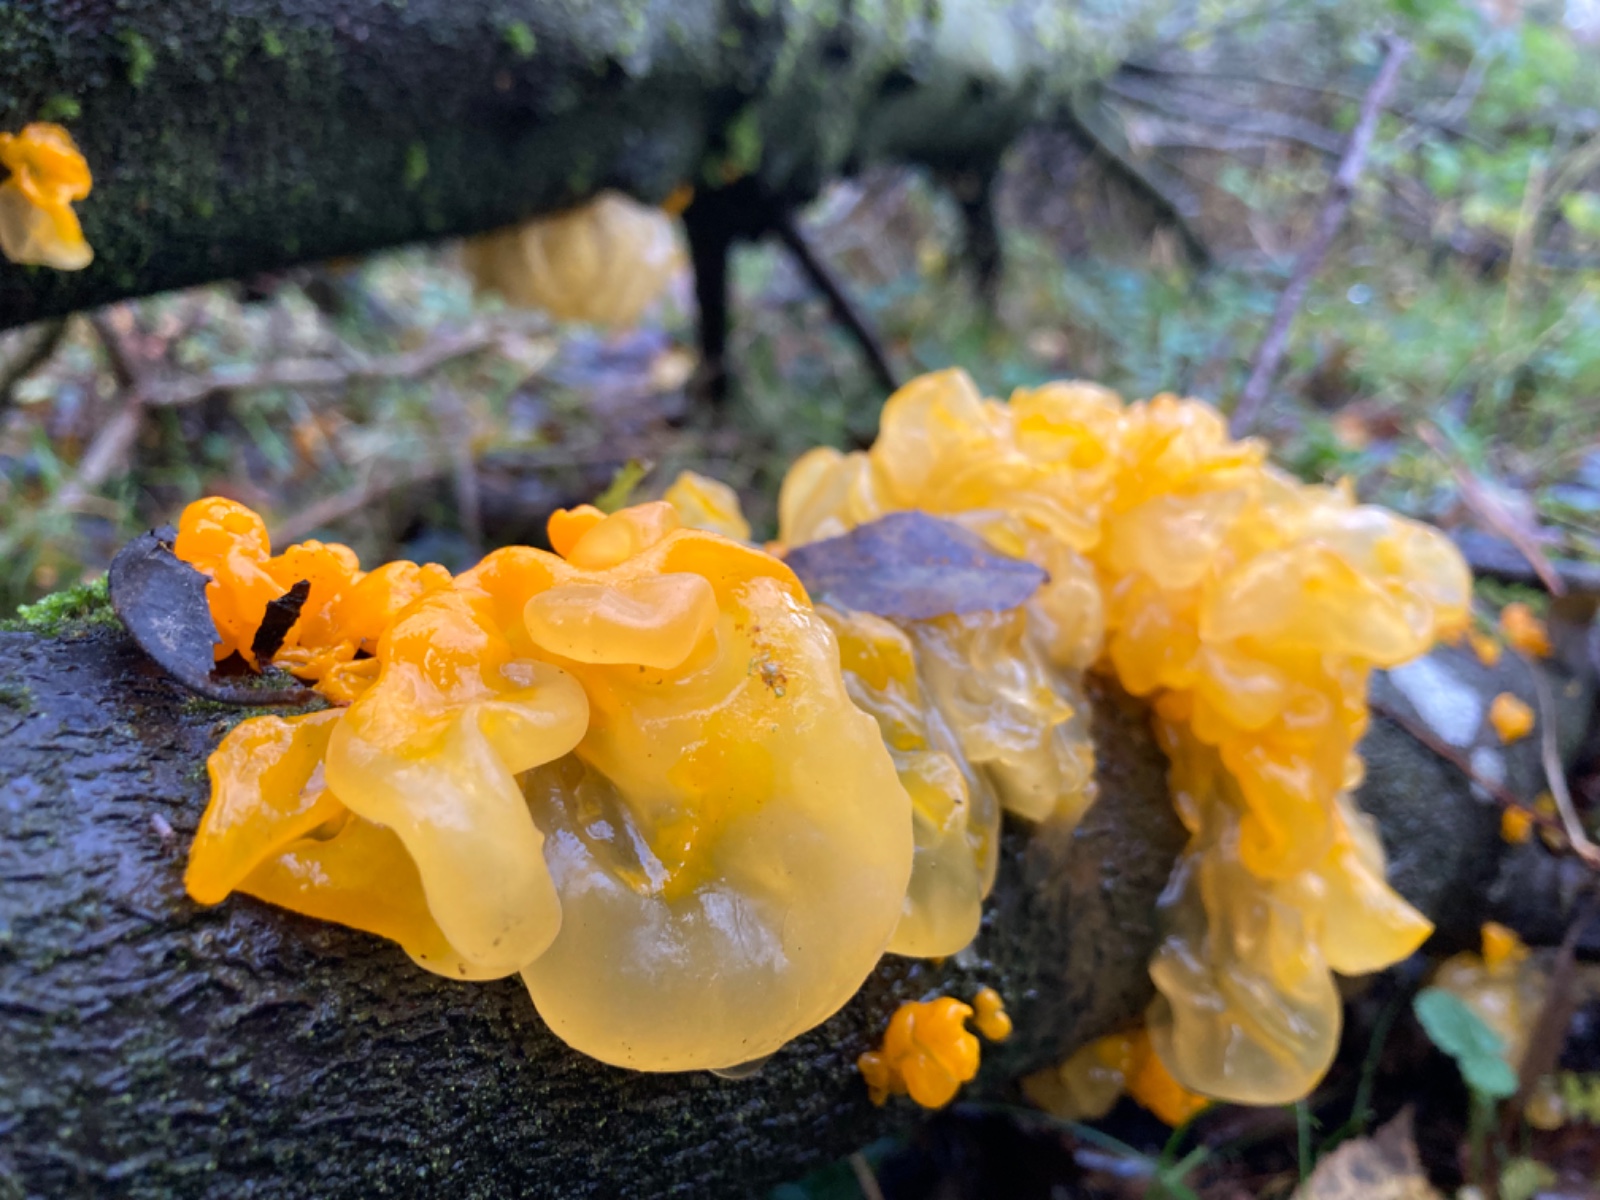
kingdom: Fungi
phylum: Basidiomycota
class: Tremellomycetes
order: Tremellales
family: Tremellaceae
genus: Tremella
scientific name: Tremella mesenterica
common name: gul bævresvamp
